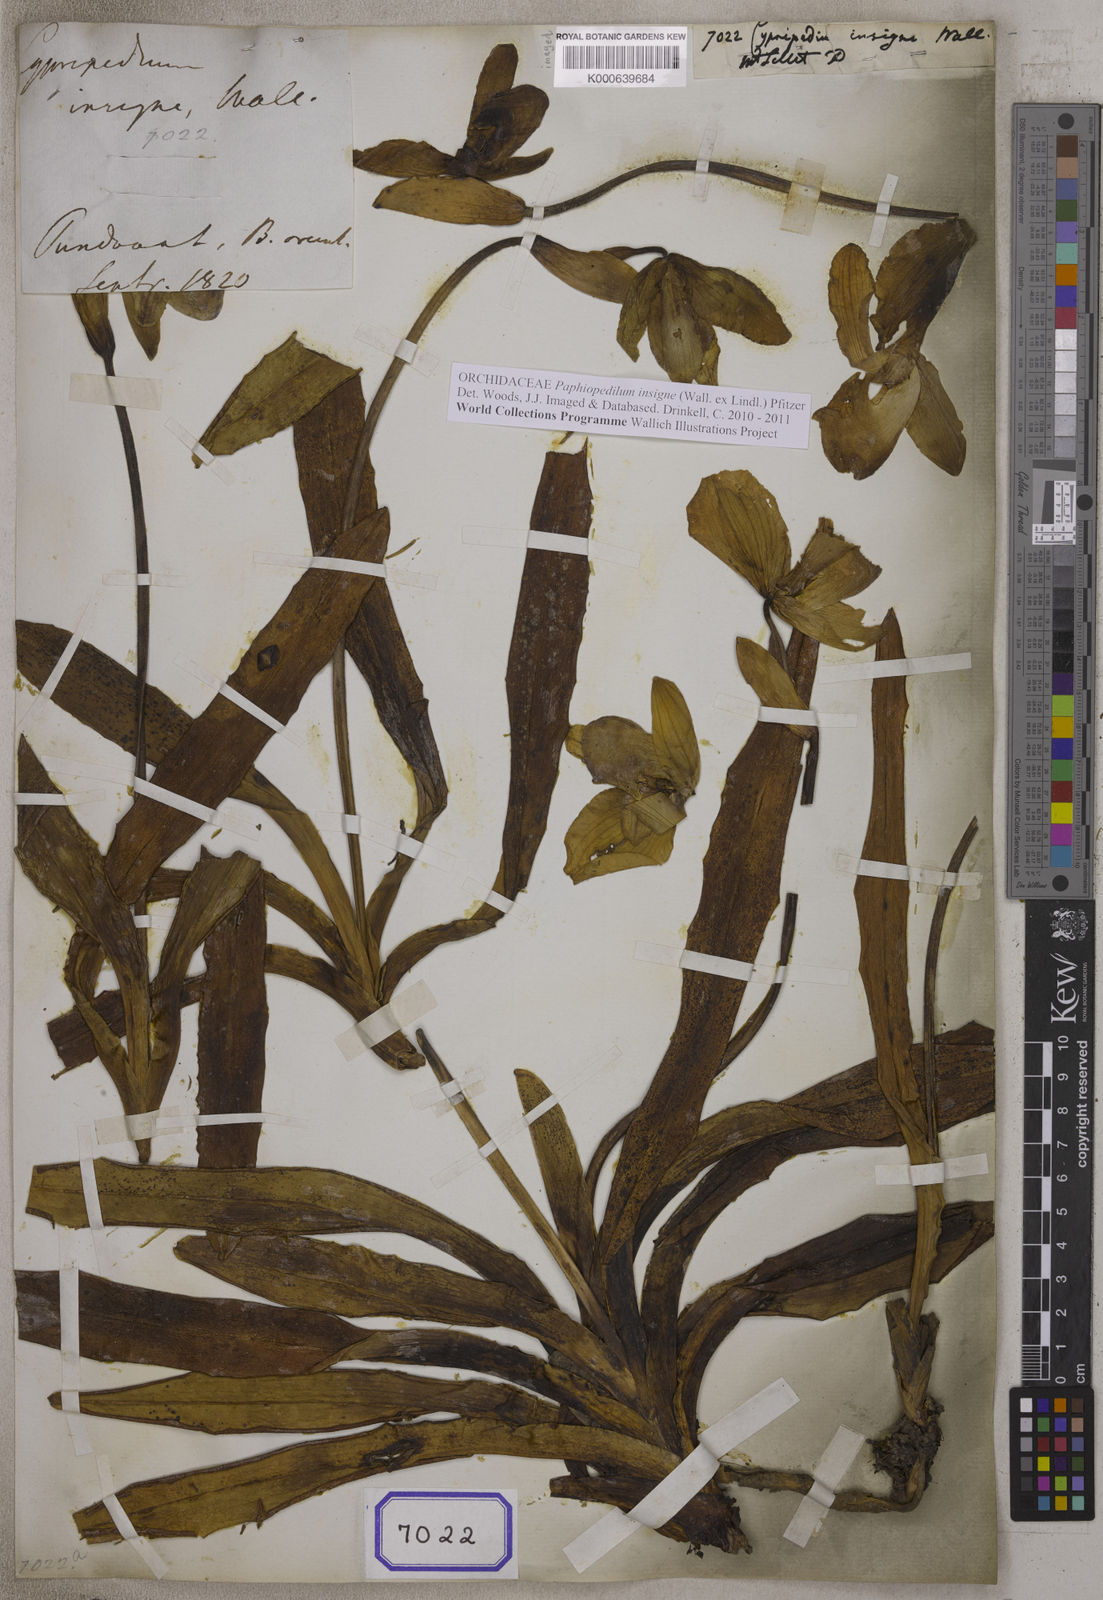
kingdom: Plantae
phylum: Tracheophyta
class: Liliopsida
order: Asparagales
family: Orchidaceae
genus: Paphiopedilum
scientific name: Paphiopedilum insigne
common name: Splendid paphiopedilum
